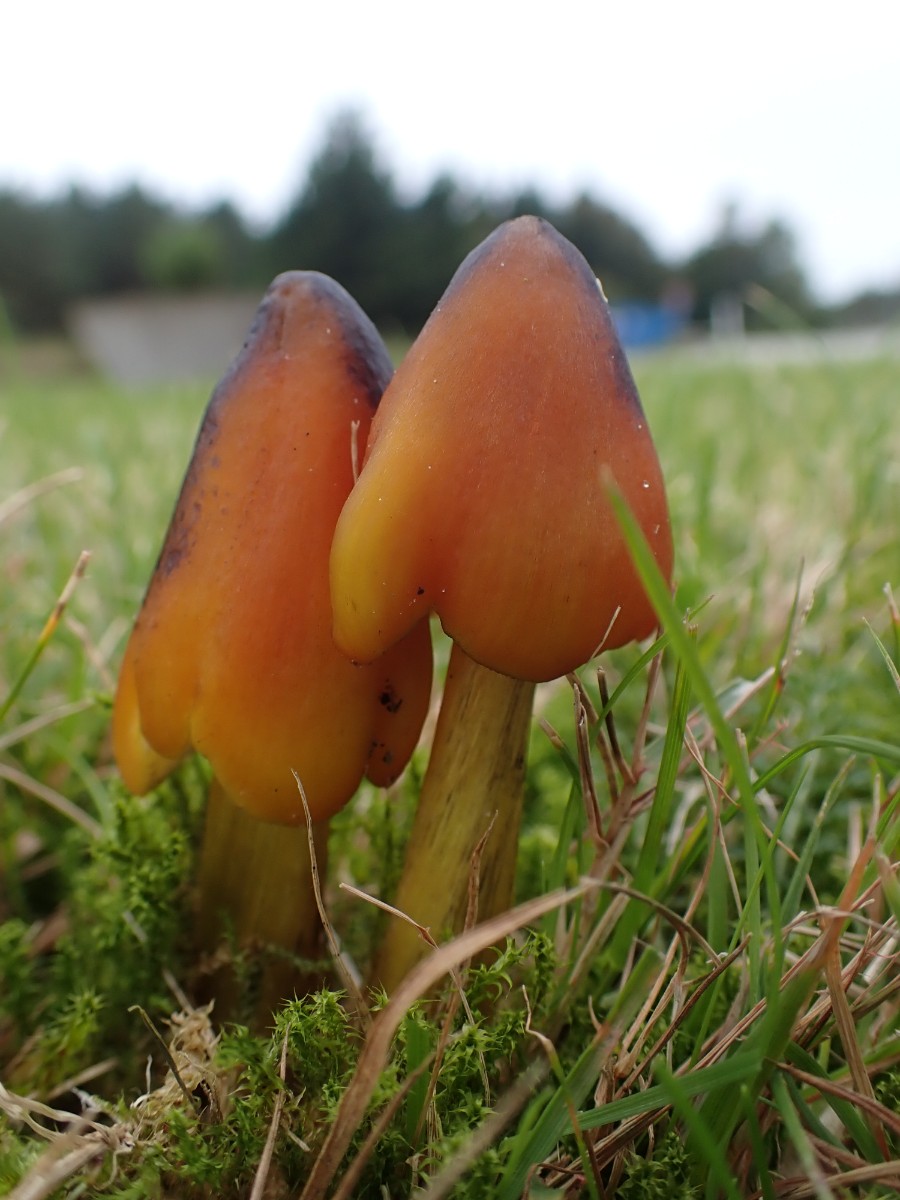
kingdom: Fungi
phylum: Basidiomycota
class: Agaricomycetes
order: Agaricales
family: Hygrophoraceae
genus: Hygrocybe
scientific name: Hygrocybe conica
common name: kegle-vokshat
